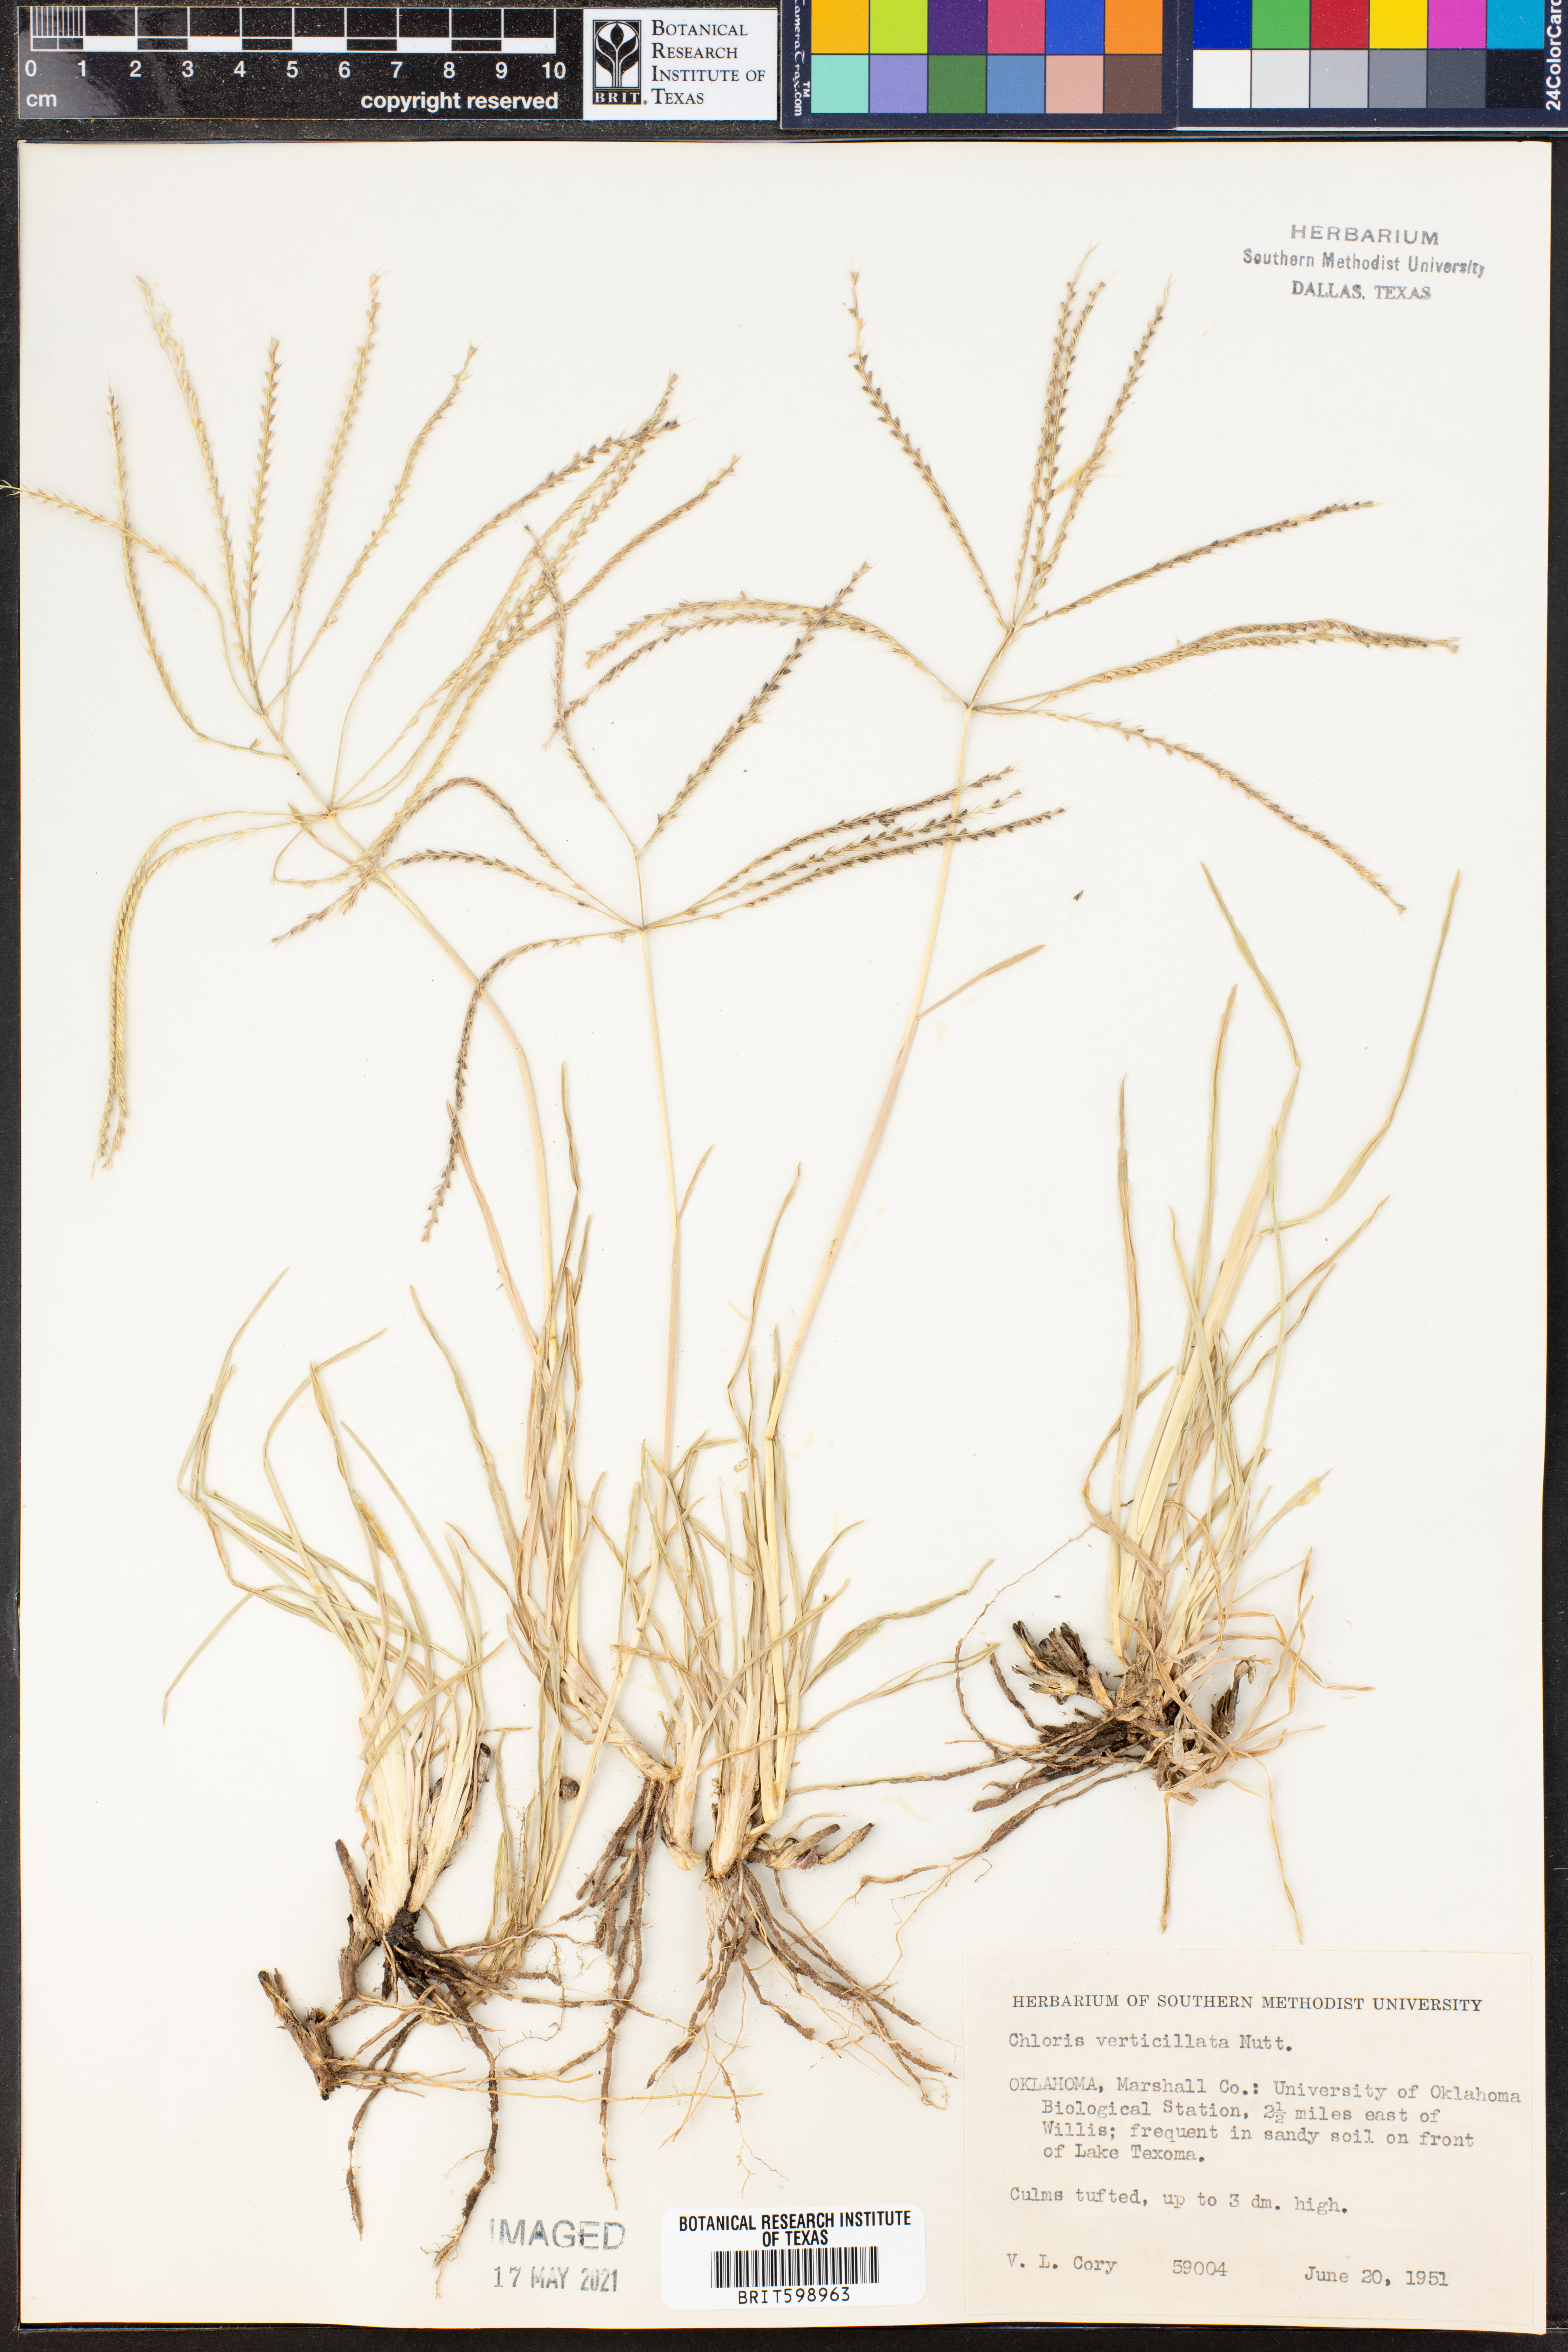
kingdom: Plantae
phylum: Tracheophyta
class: Liliopsida
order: Poales
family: Poaceae
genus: Chloris
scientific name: Chloris verticillata
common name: Tumble windmill grass
